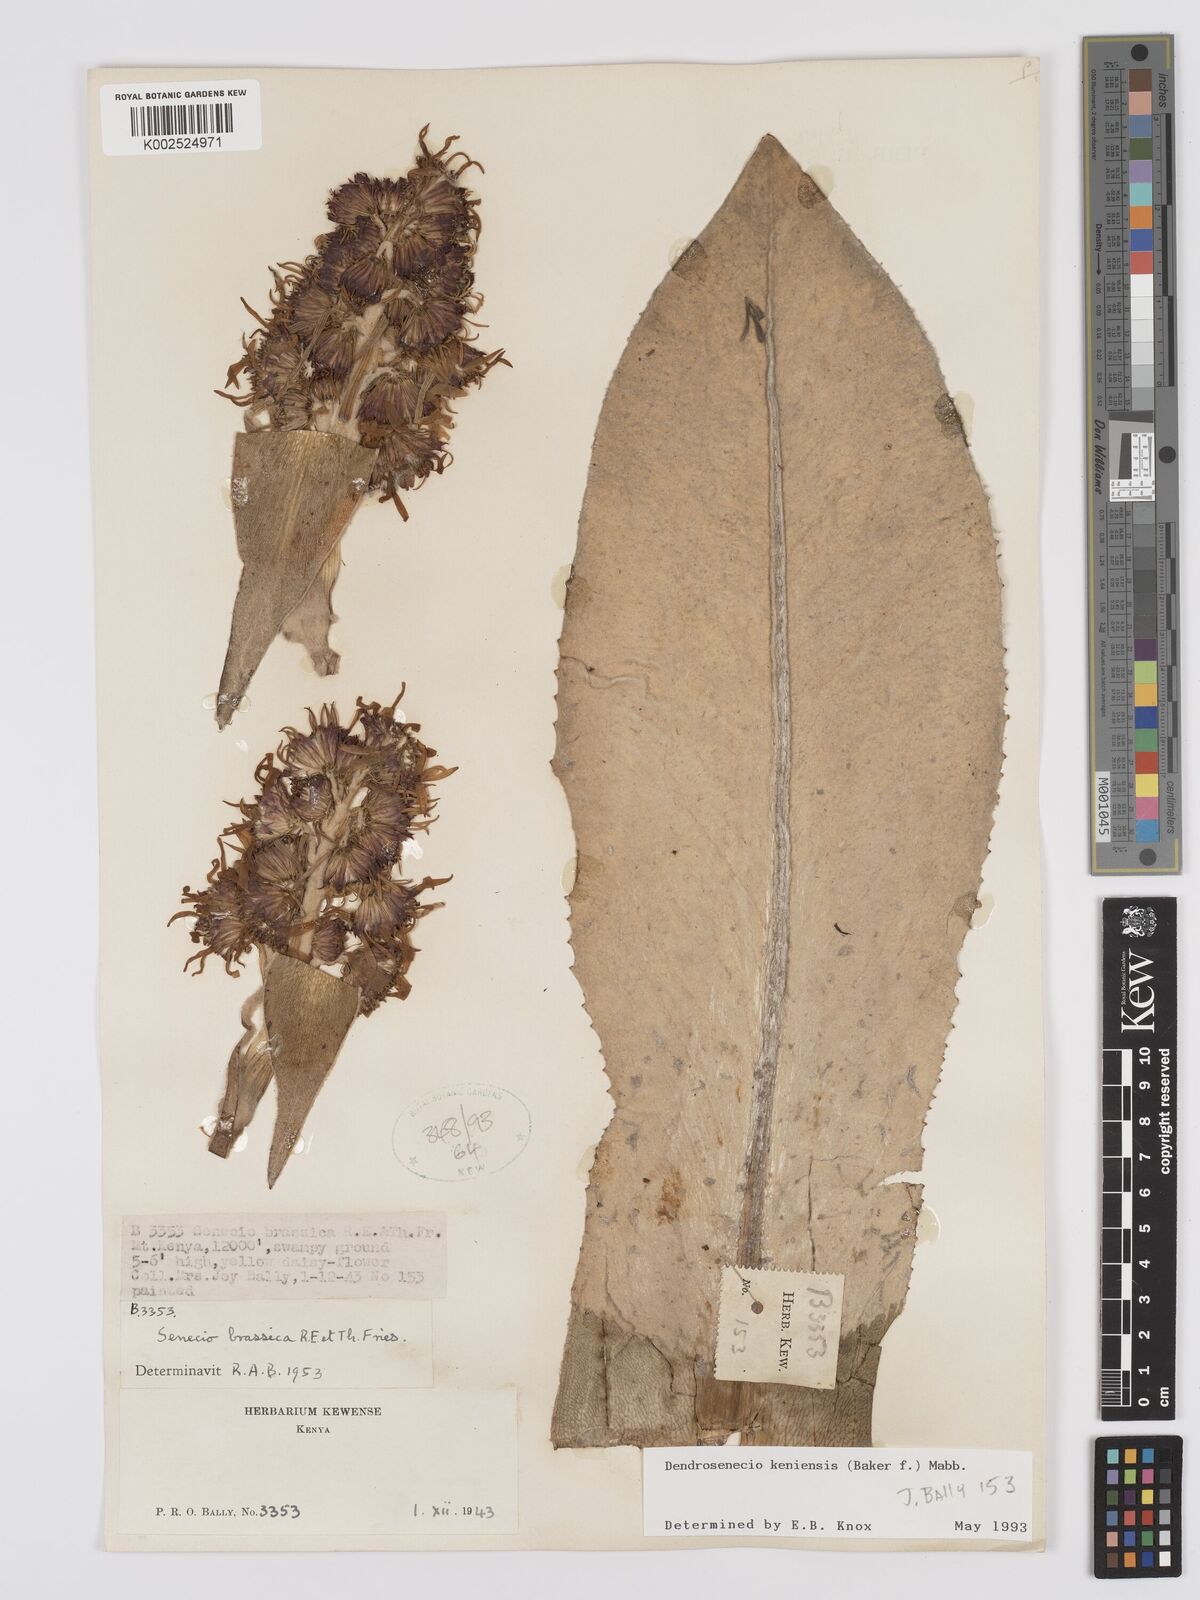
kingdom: Plantae
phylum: Tracheophyta
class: Magnoliopsida
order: Asterales
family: Asteraceae
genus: Dendrosenecio
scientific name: Dendrosenecio keniensis
